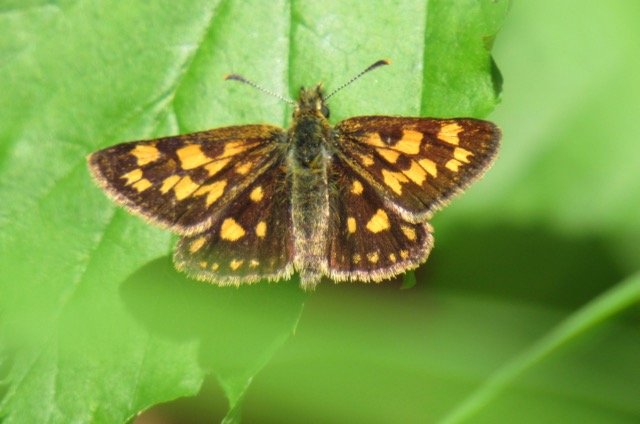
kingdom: Animalia
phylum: Arthropoda
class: Insecta
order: Lepidoptera
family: Hesperiidae
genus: Carterocephalus
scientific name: Carterocephalus palaemon
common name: Chequered Skipper
